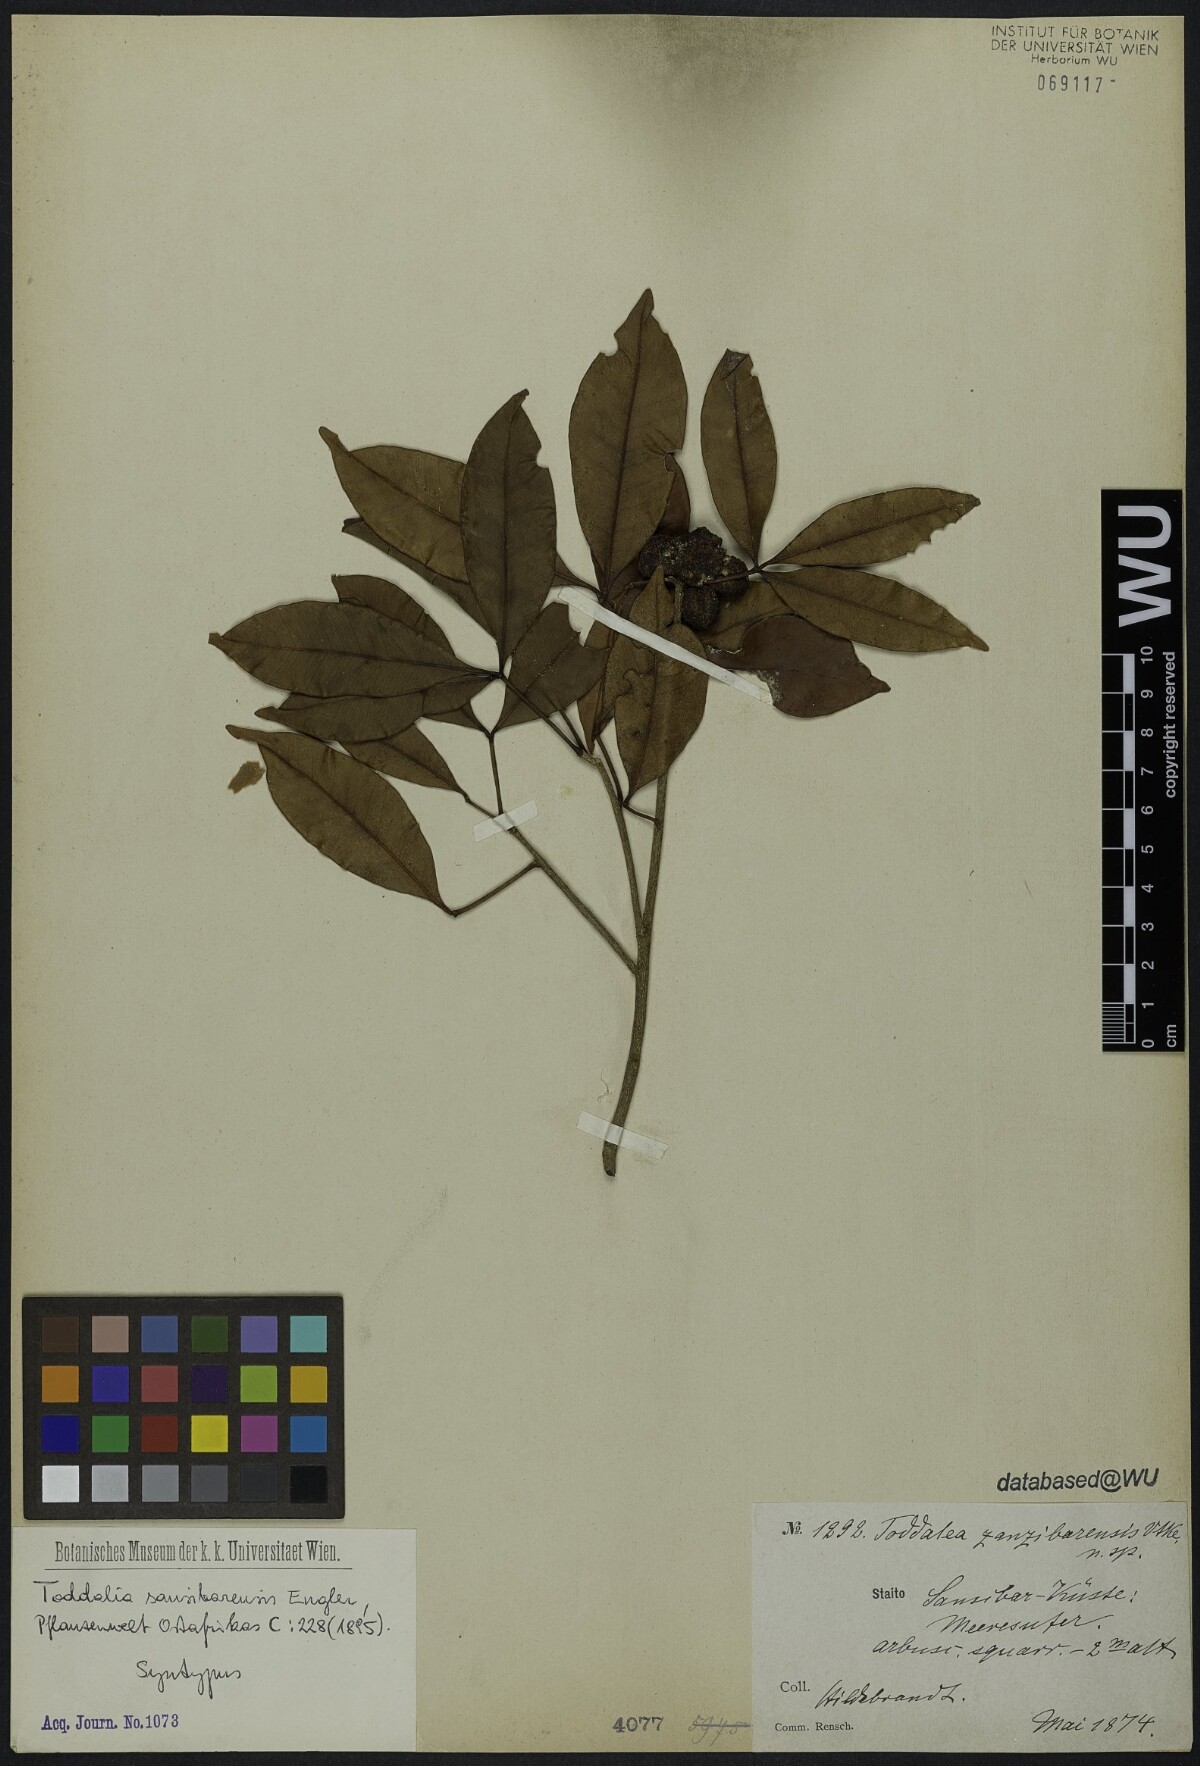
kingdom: Plantae
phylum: Tracheophyta
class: Magnoliopsida
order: Sapindales
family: Rutaceae
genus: Vepris
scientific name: Vepris sansibarensis
